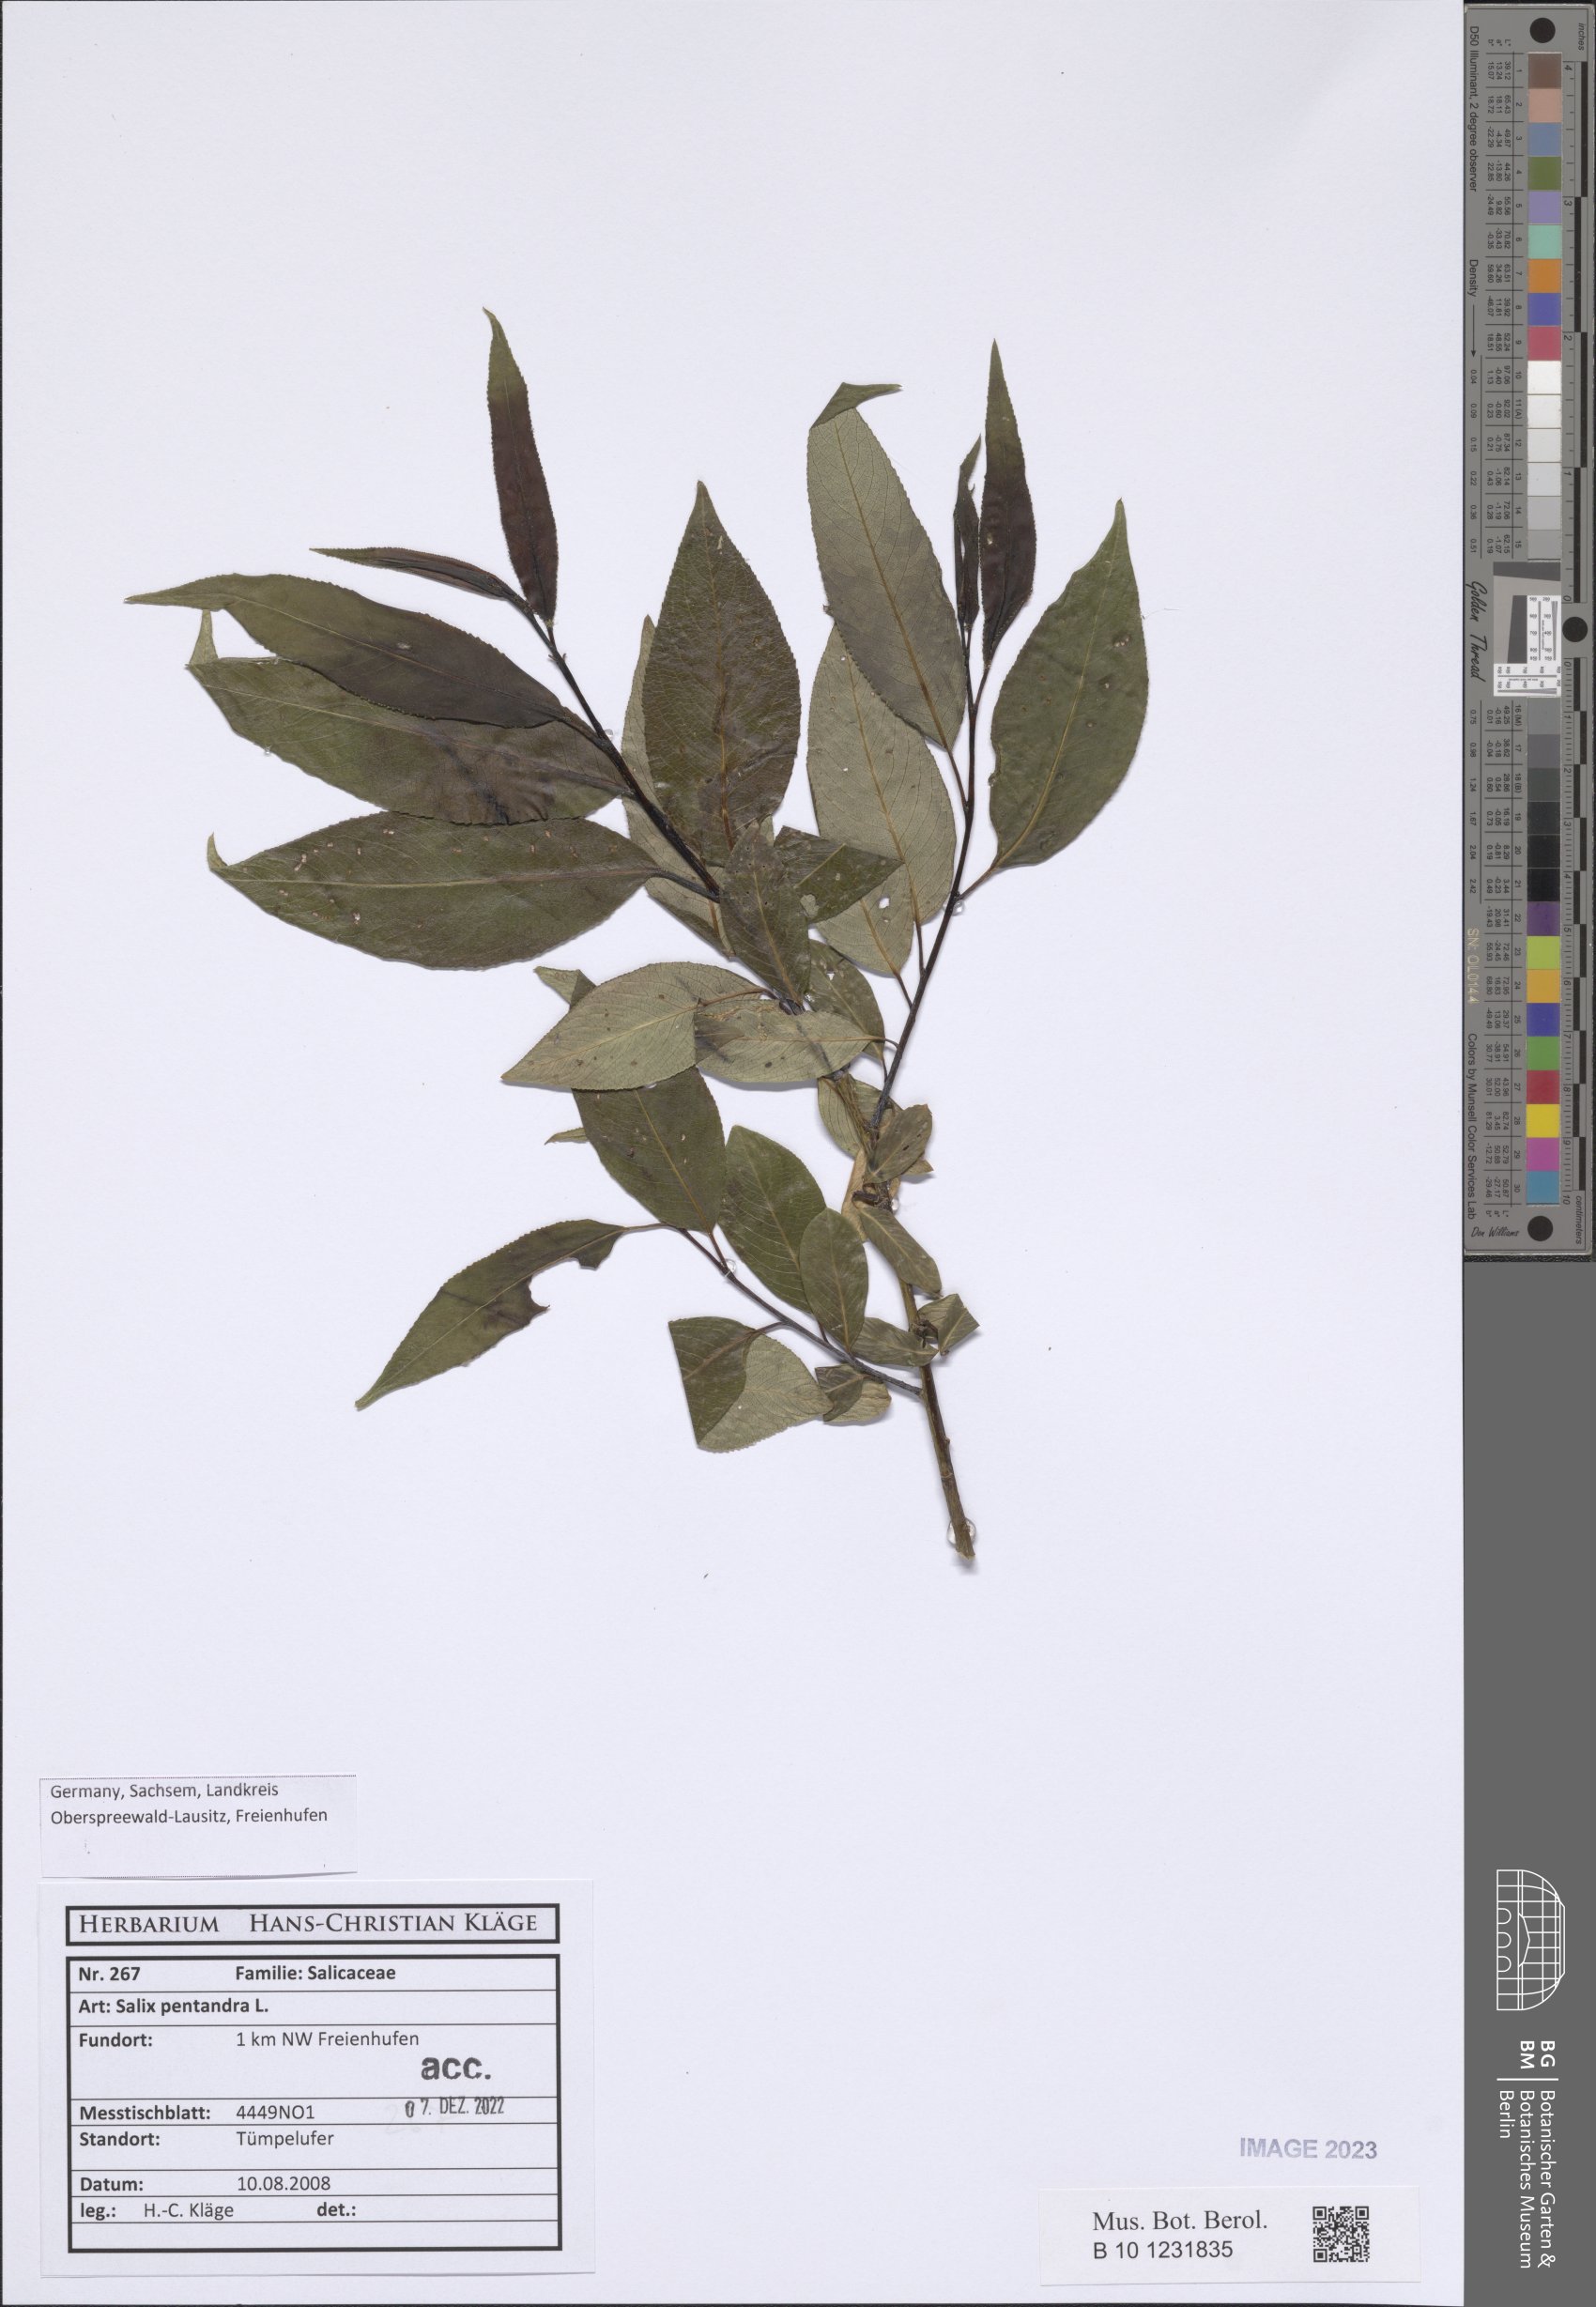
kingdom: Plantae
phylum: Tracheophyta
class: Magnoliopsida
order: Malpighiales
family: Salicaceae
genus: Salix
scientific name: Salix pentandra
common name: Bay willow
